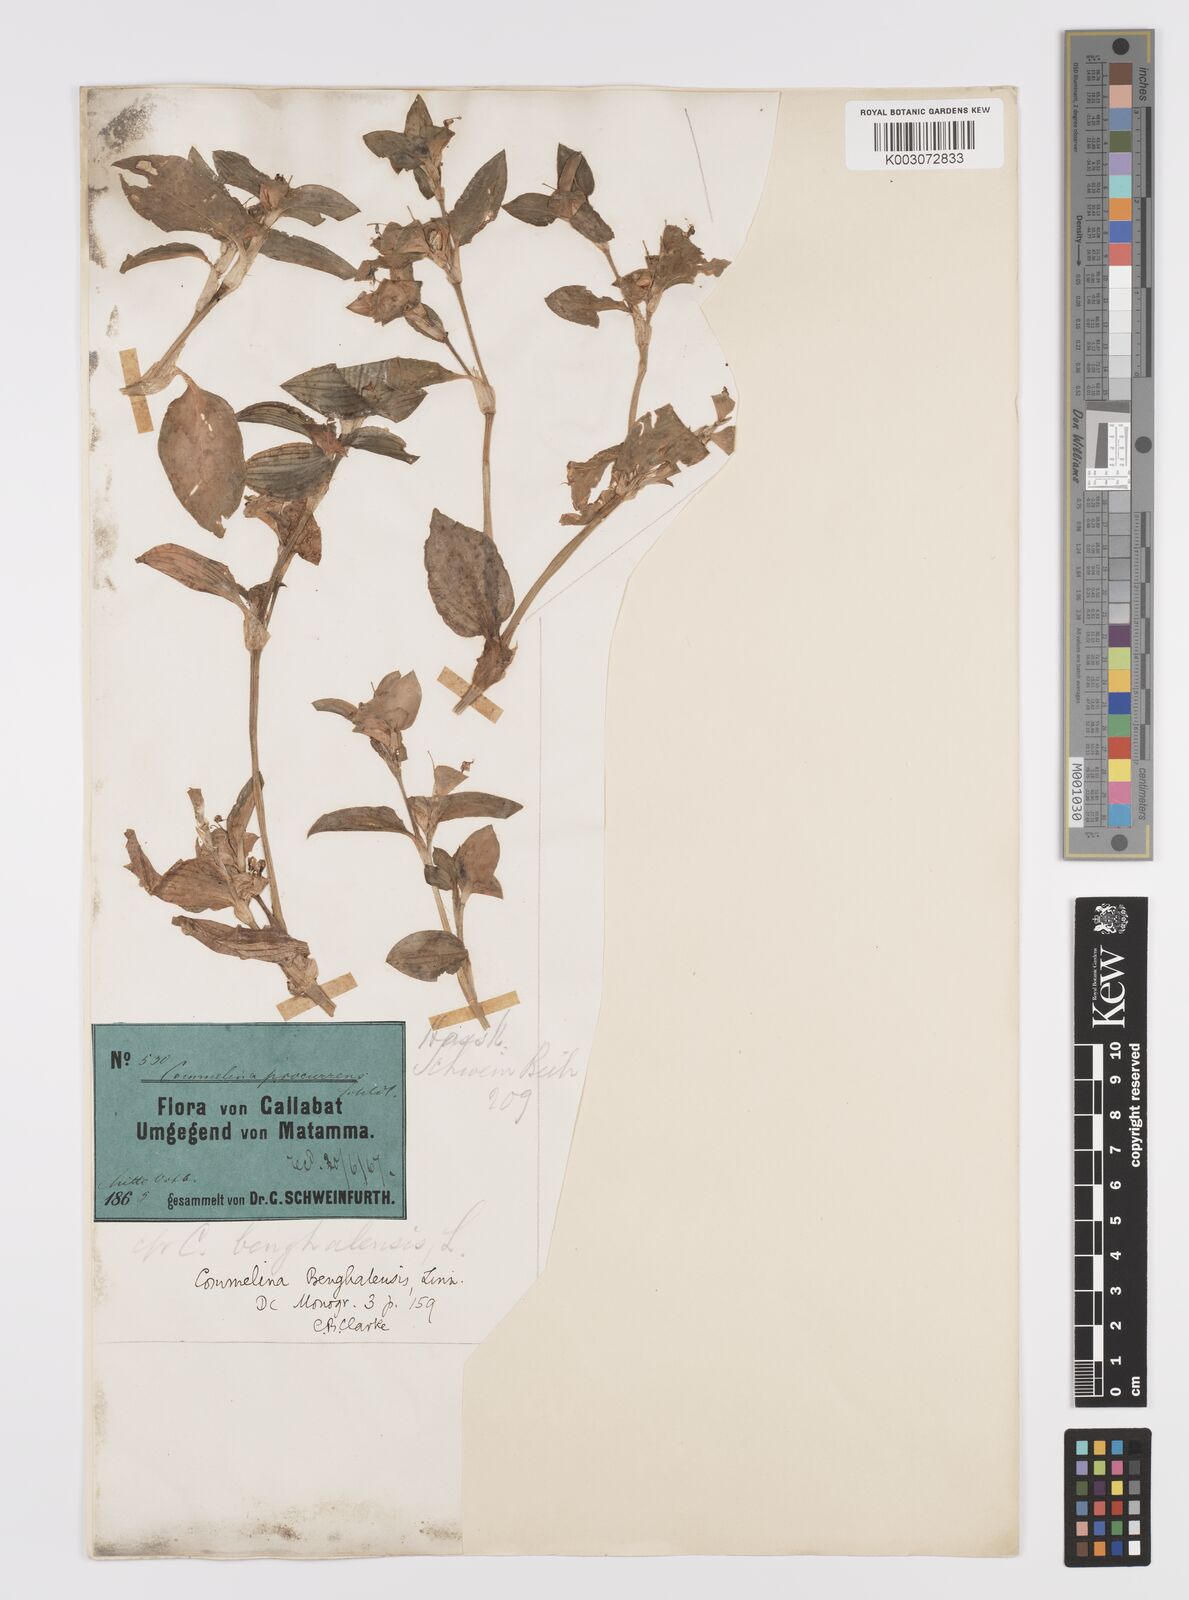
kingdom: Plantae
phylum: Tracheophyta
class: Liliopsida
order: Commelinales
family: Commelinaceae
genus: Commelina
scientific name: Commelina benghalensis
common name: Jio
